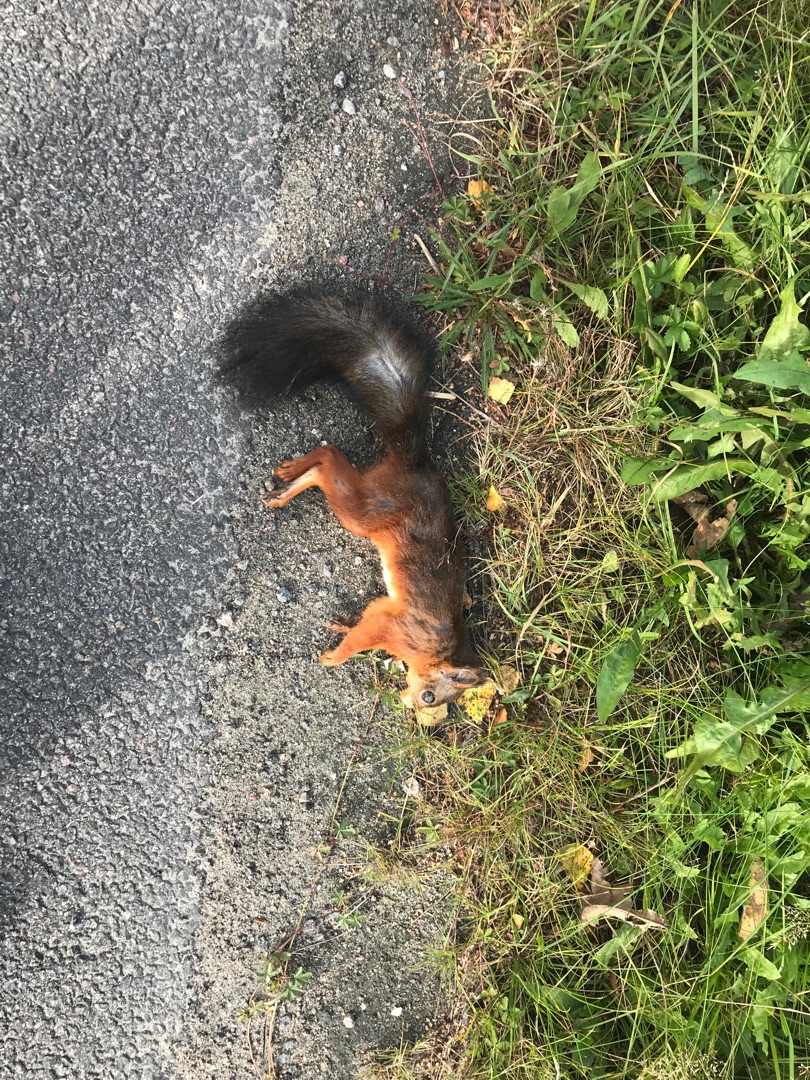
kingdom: Animalia
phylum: Chordata
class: Mammalia
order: Rodentia
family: Sciuridae
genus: Sciurus
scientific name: Sciurus vulgaris
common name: Egern
